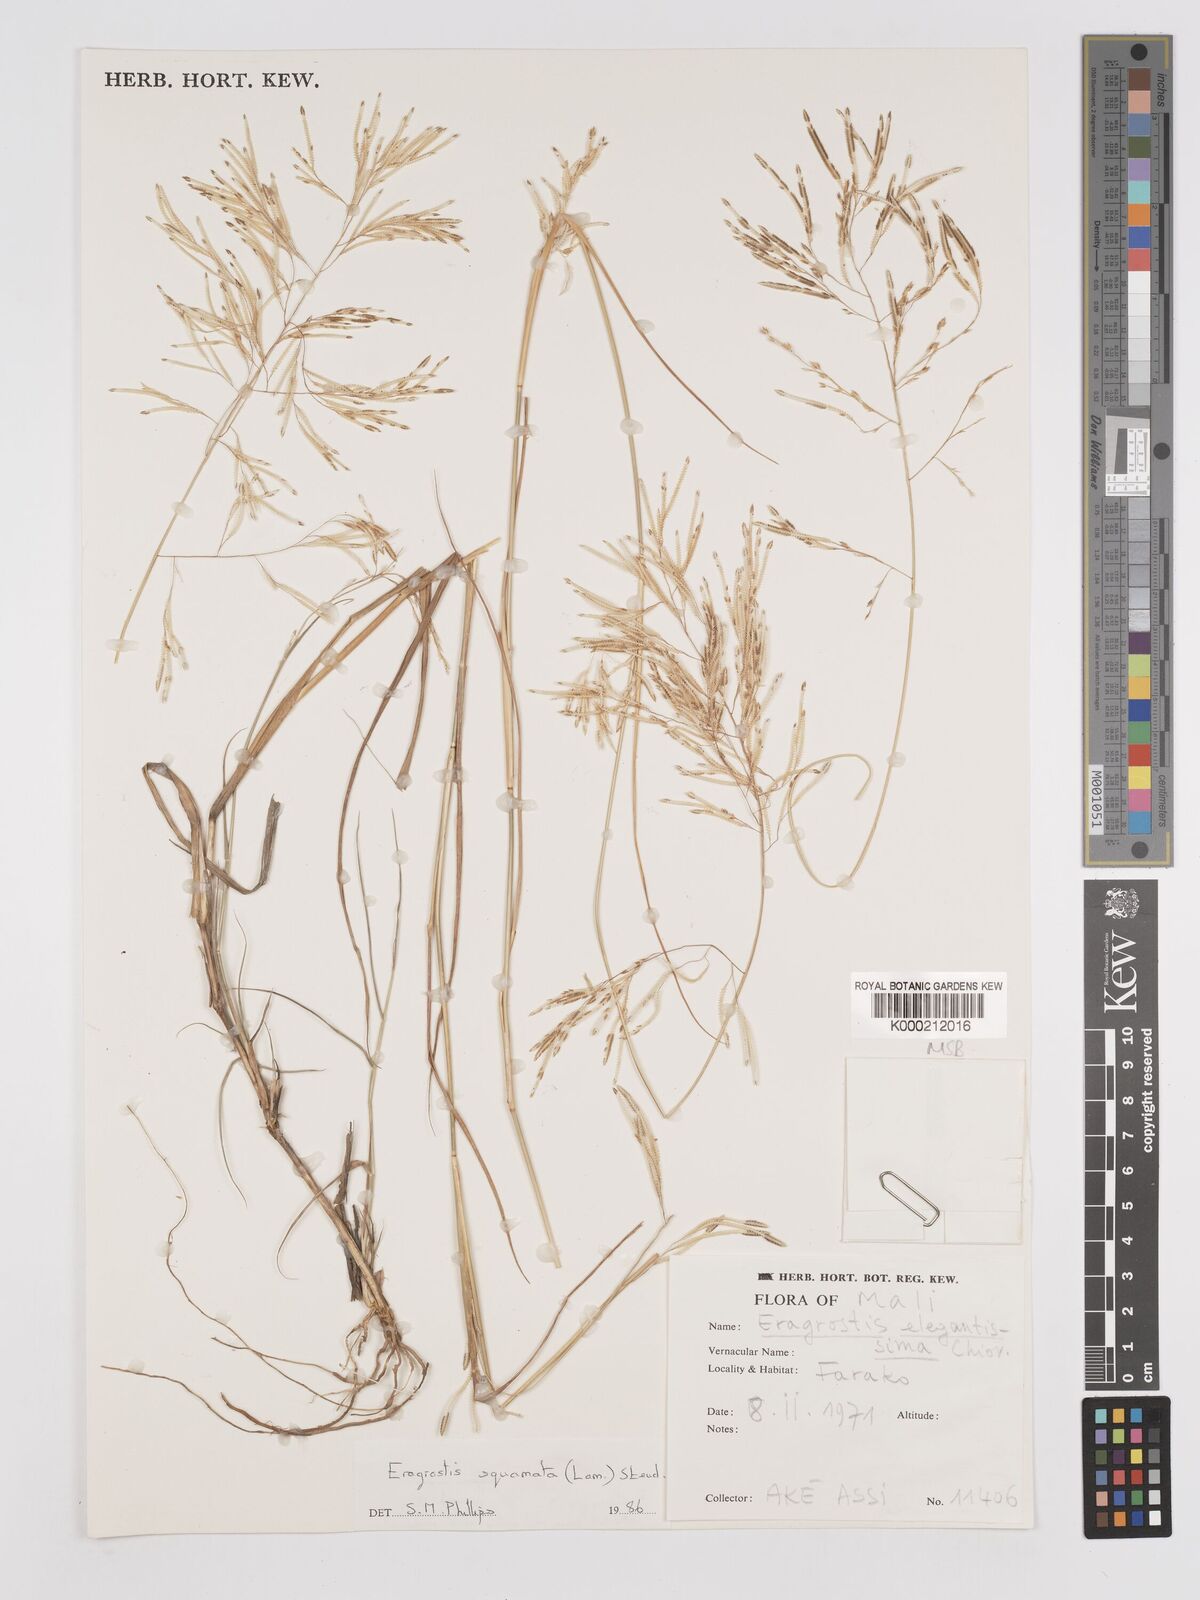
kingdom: Plantae
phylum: Tracheophyta
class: Liliopsida
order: Poales
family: Poaceae
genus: Eragrostis
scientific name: Eragrostis squamata
